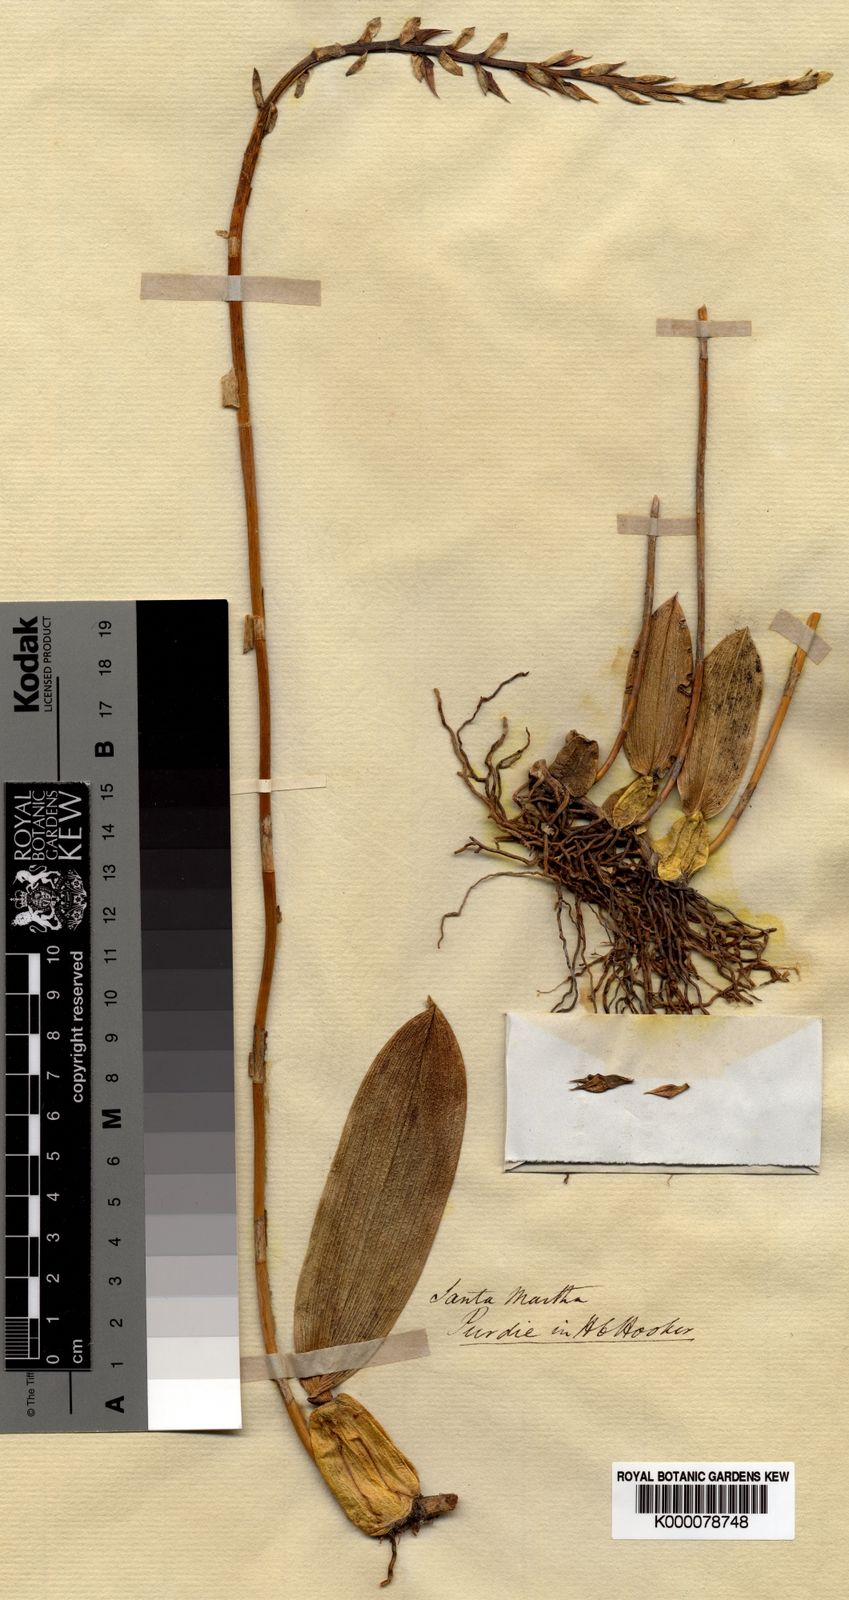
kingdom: Plantae
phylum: Tracheophyta
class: Liliopsida
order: Asparagales
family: Orchidaceae
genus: Bulbophyllum
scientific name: Bulbophyllum
